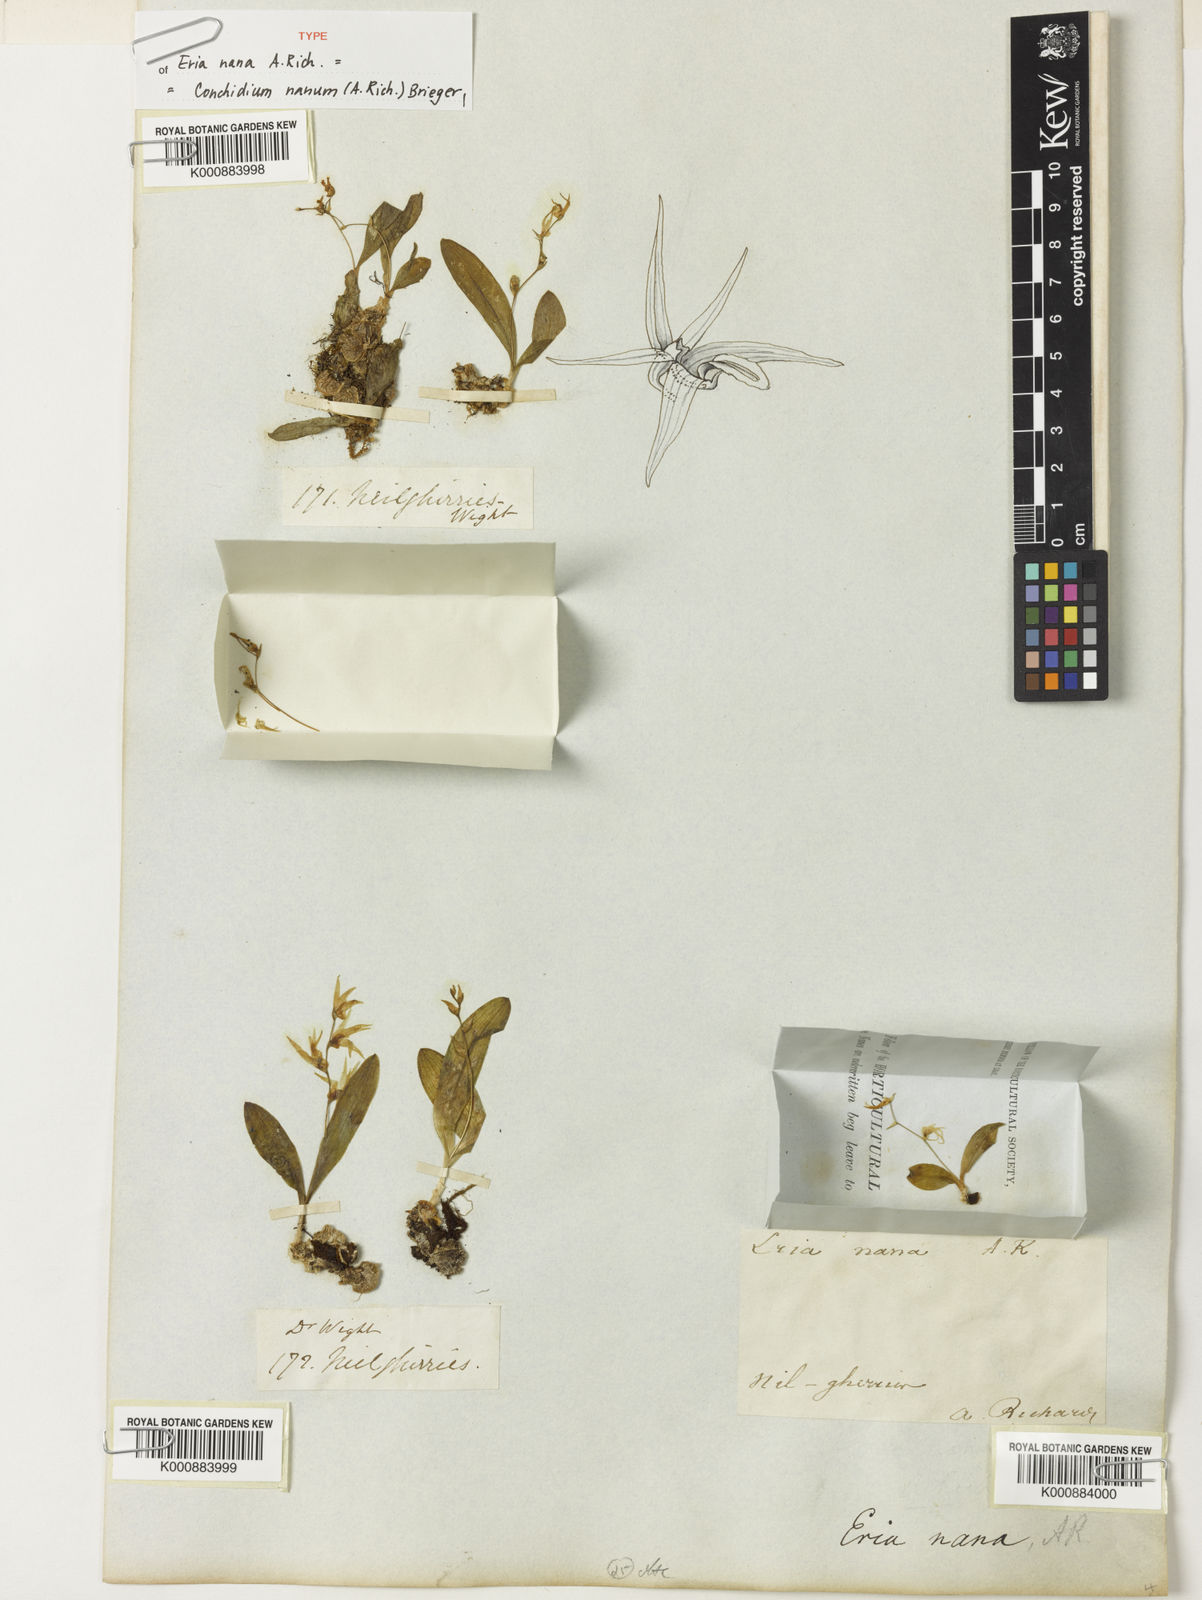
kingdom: Plantae
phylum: Tracheophyta
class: Liliopsida
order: Asparagales
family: Orchidaceae
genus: Porpax
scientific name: Porpax nana
